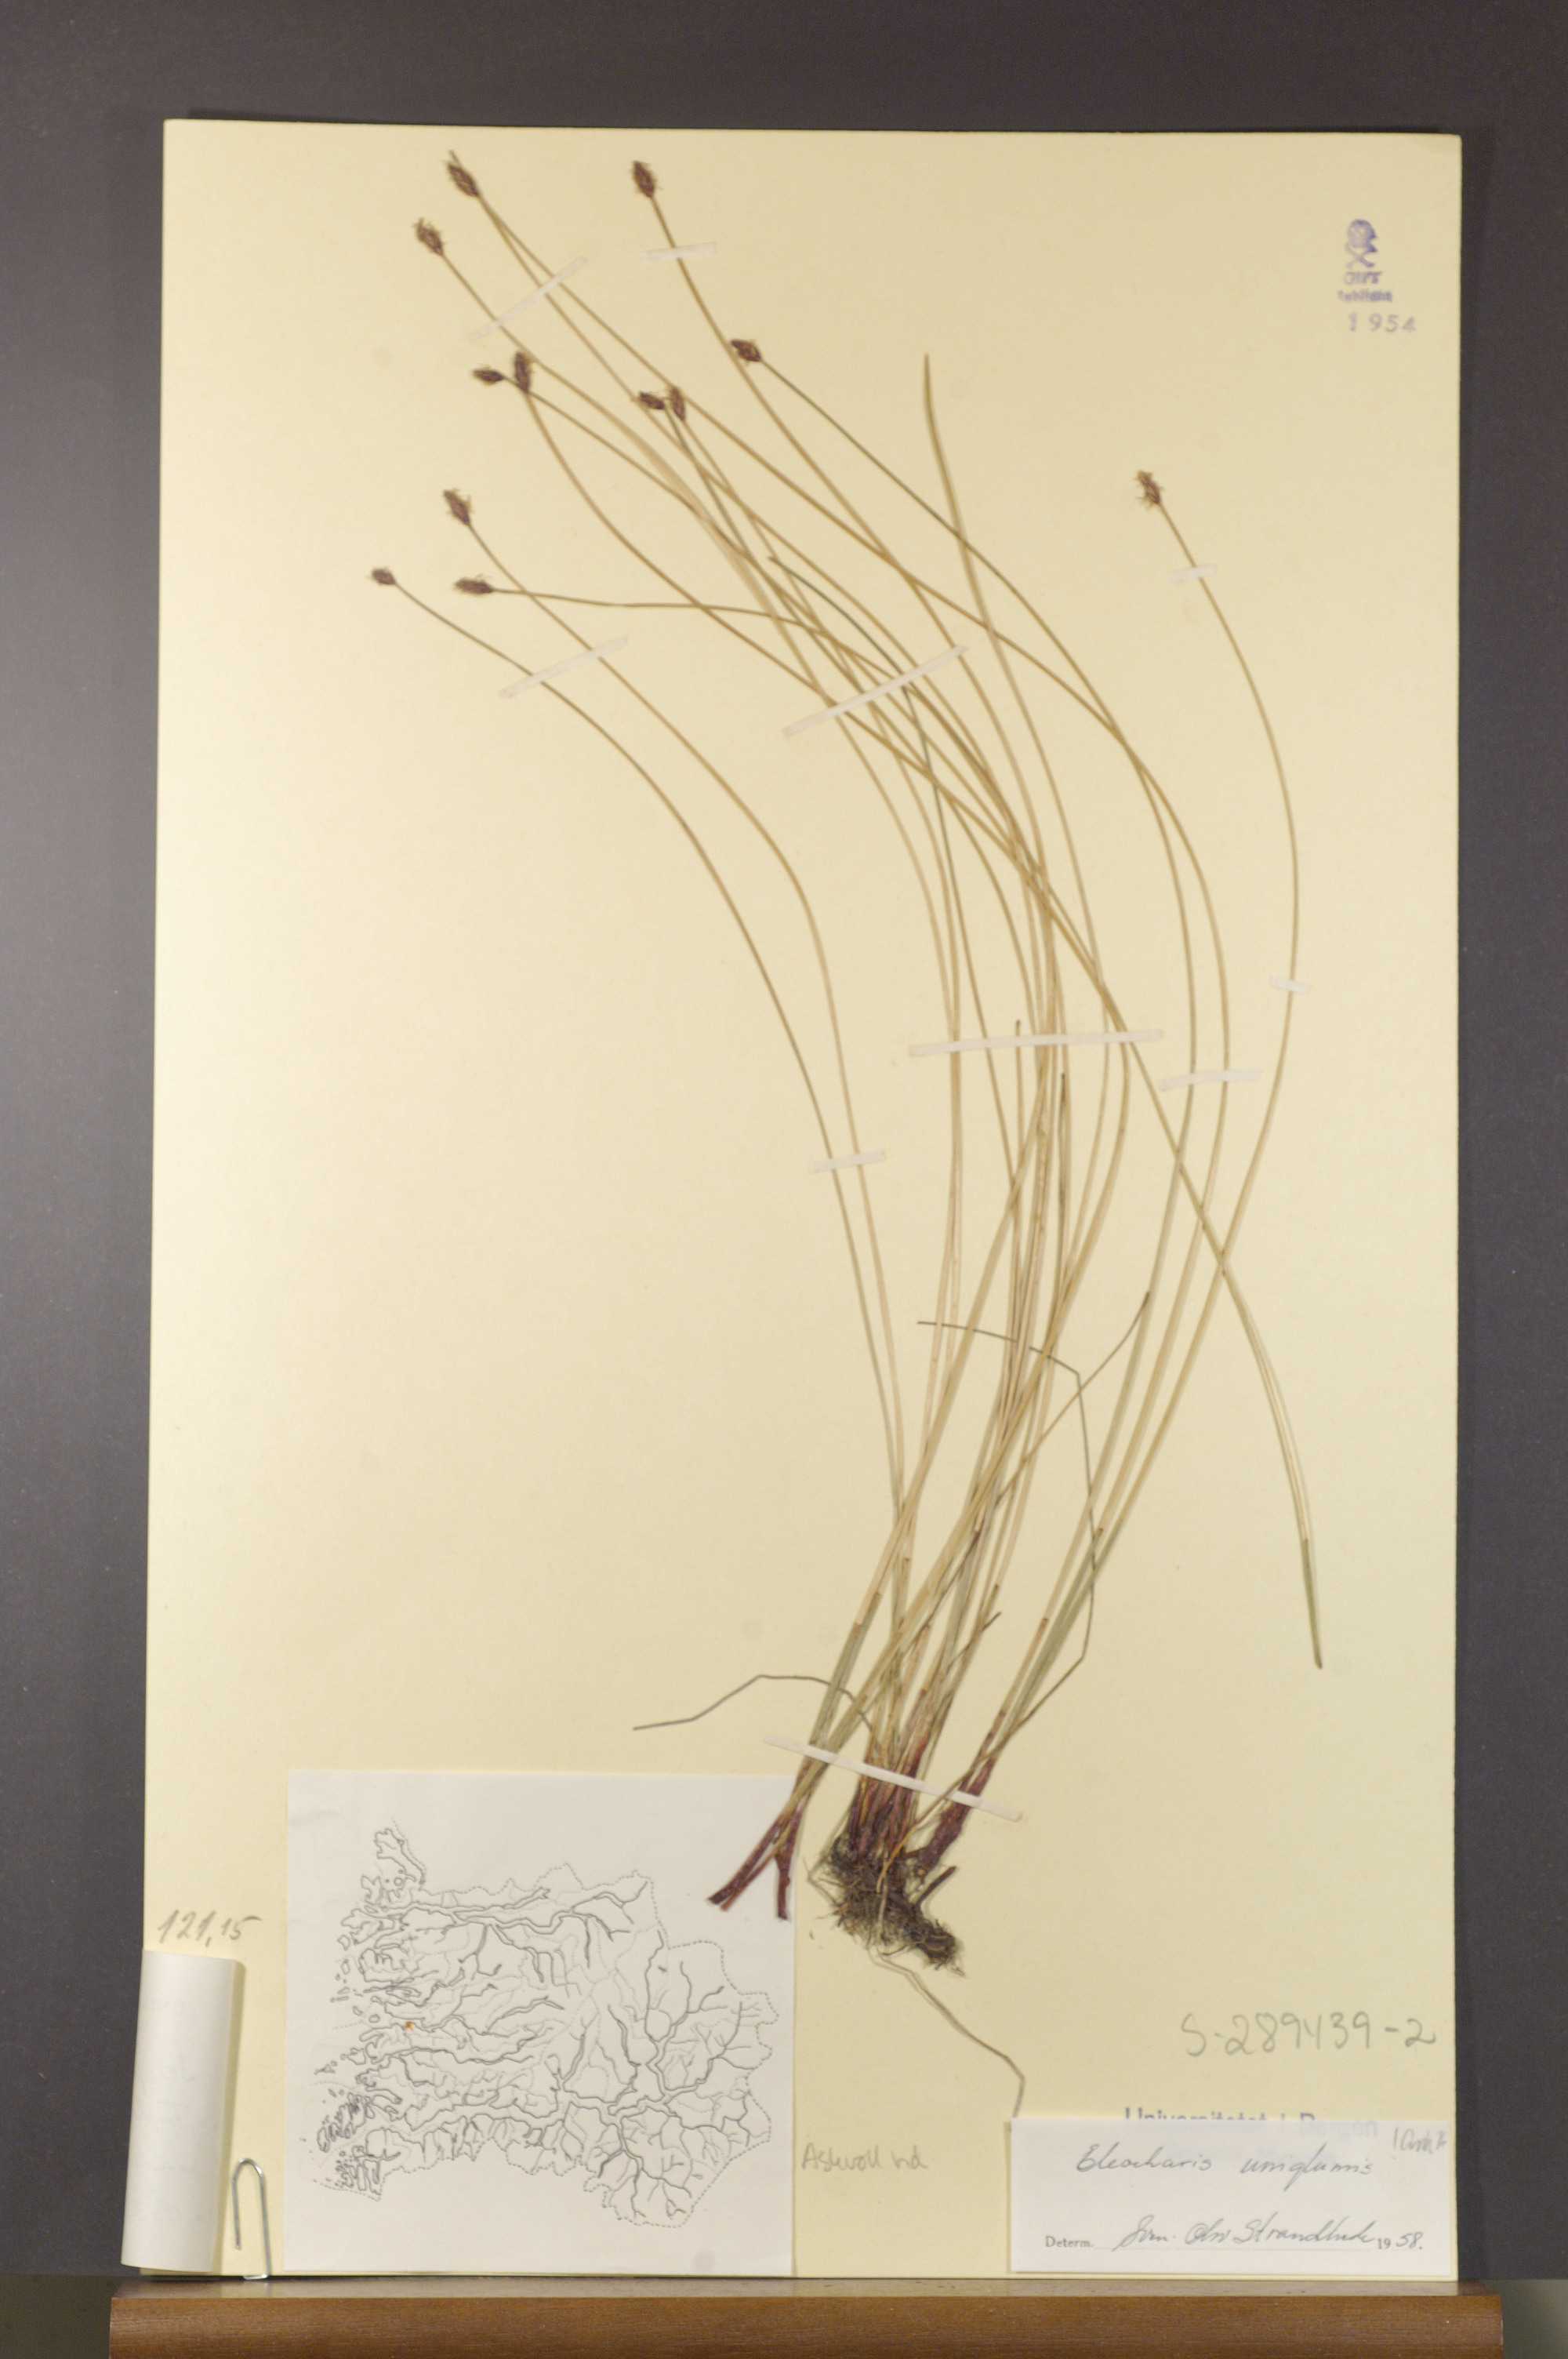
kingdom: Plantae
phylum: Tracheophyta
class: Liliopsida
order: Poales
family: Cyperaceae
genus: Eleocharis
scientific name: Eleocharis uniglumis
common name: Slender spike-rush
